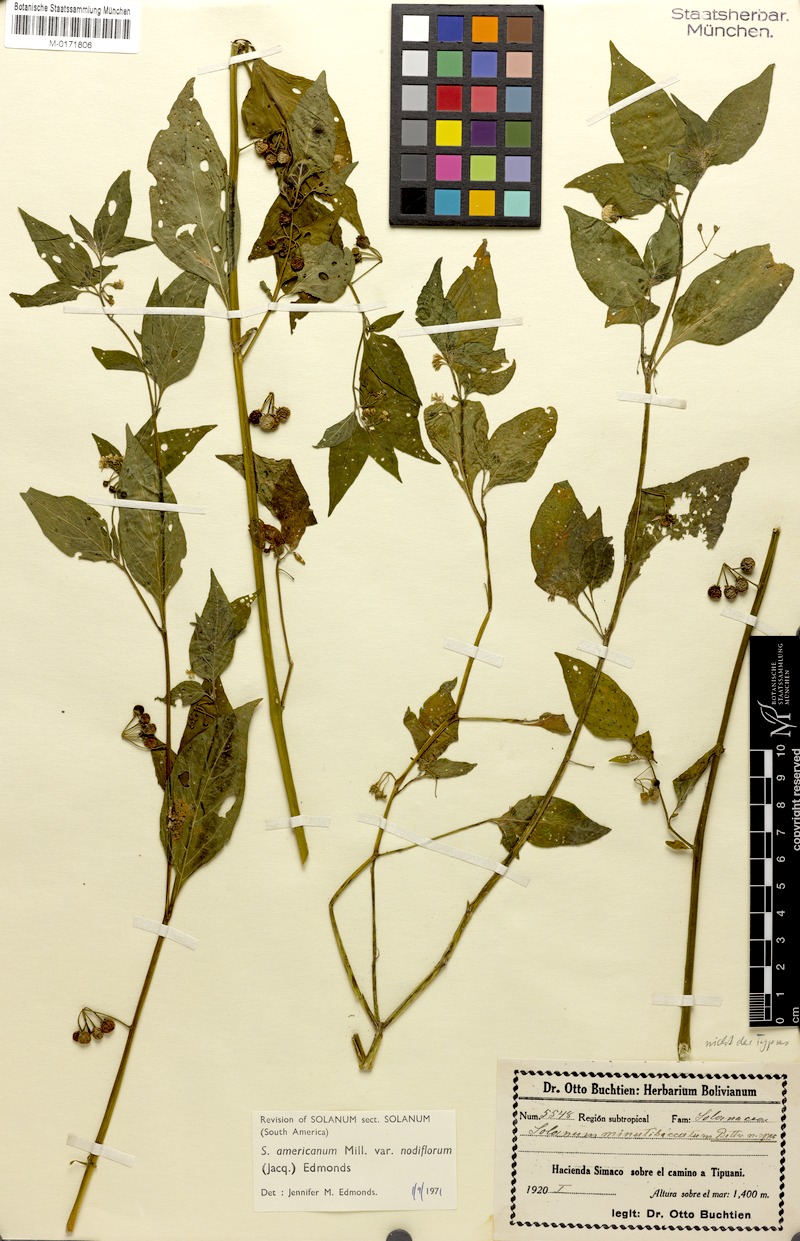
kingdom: Plantae
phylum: Tracheophyta
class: Magnoliopsida
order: Solanales
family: Solanaceae
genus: Solanum
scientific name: Solanum americanum
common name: American black nightshade
